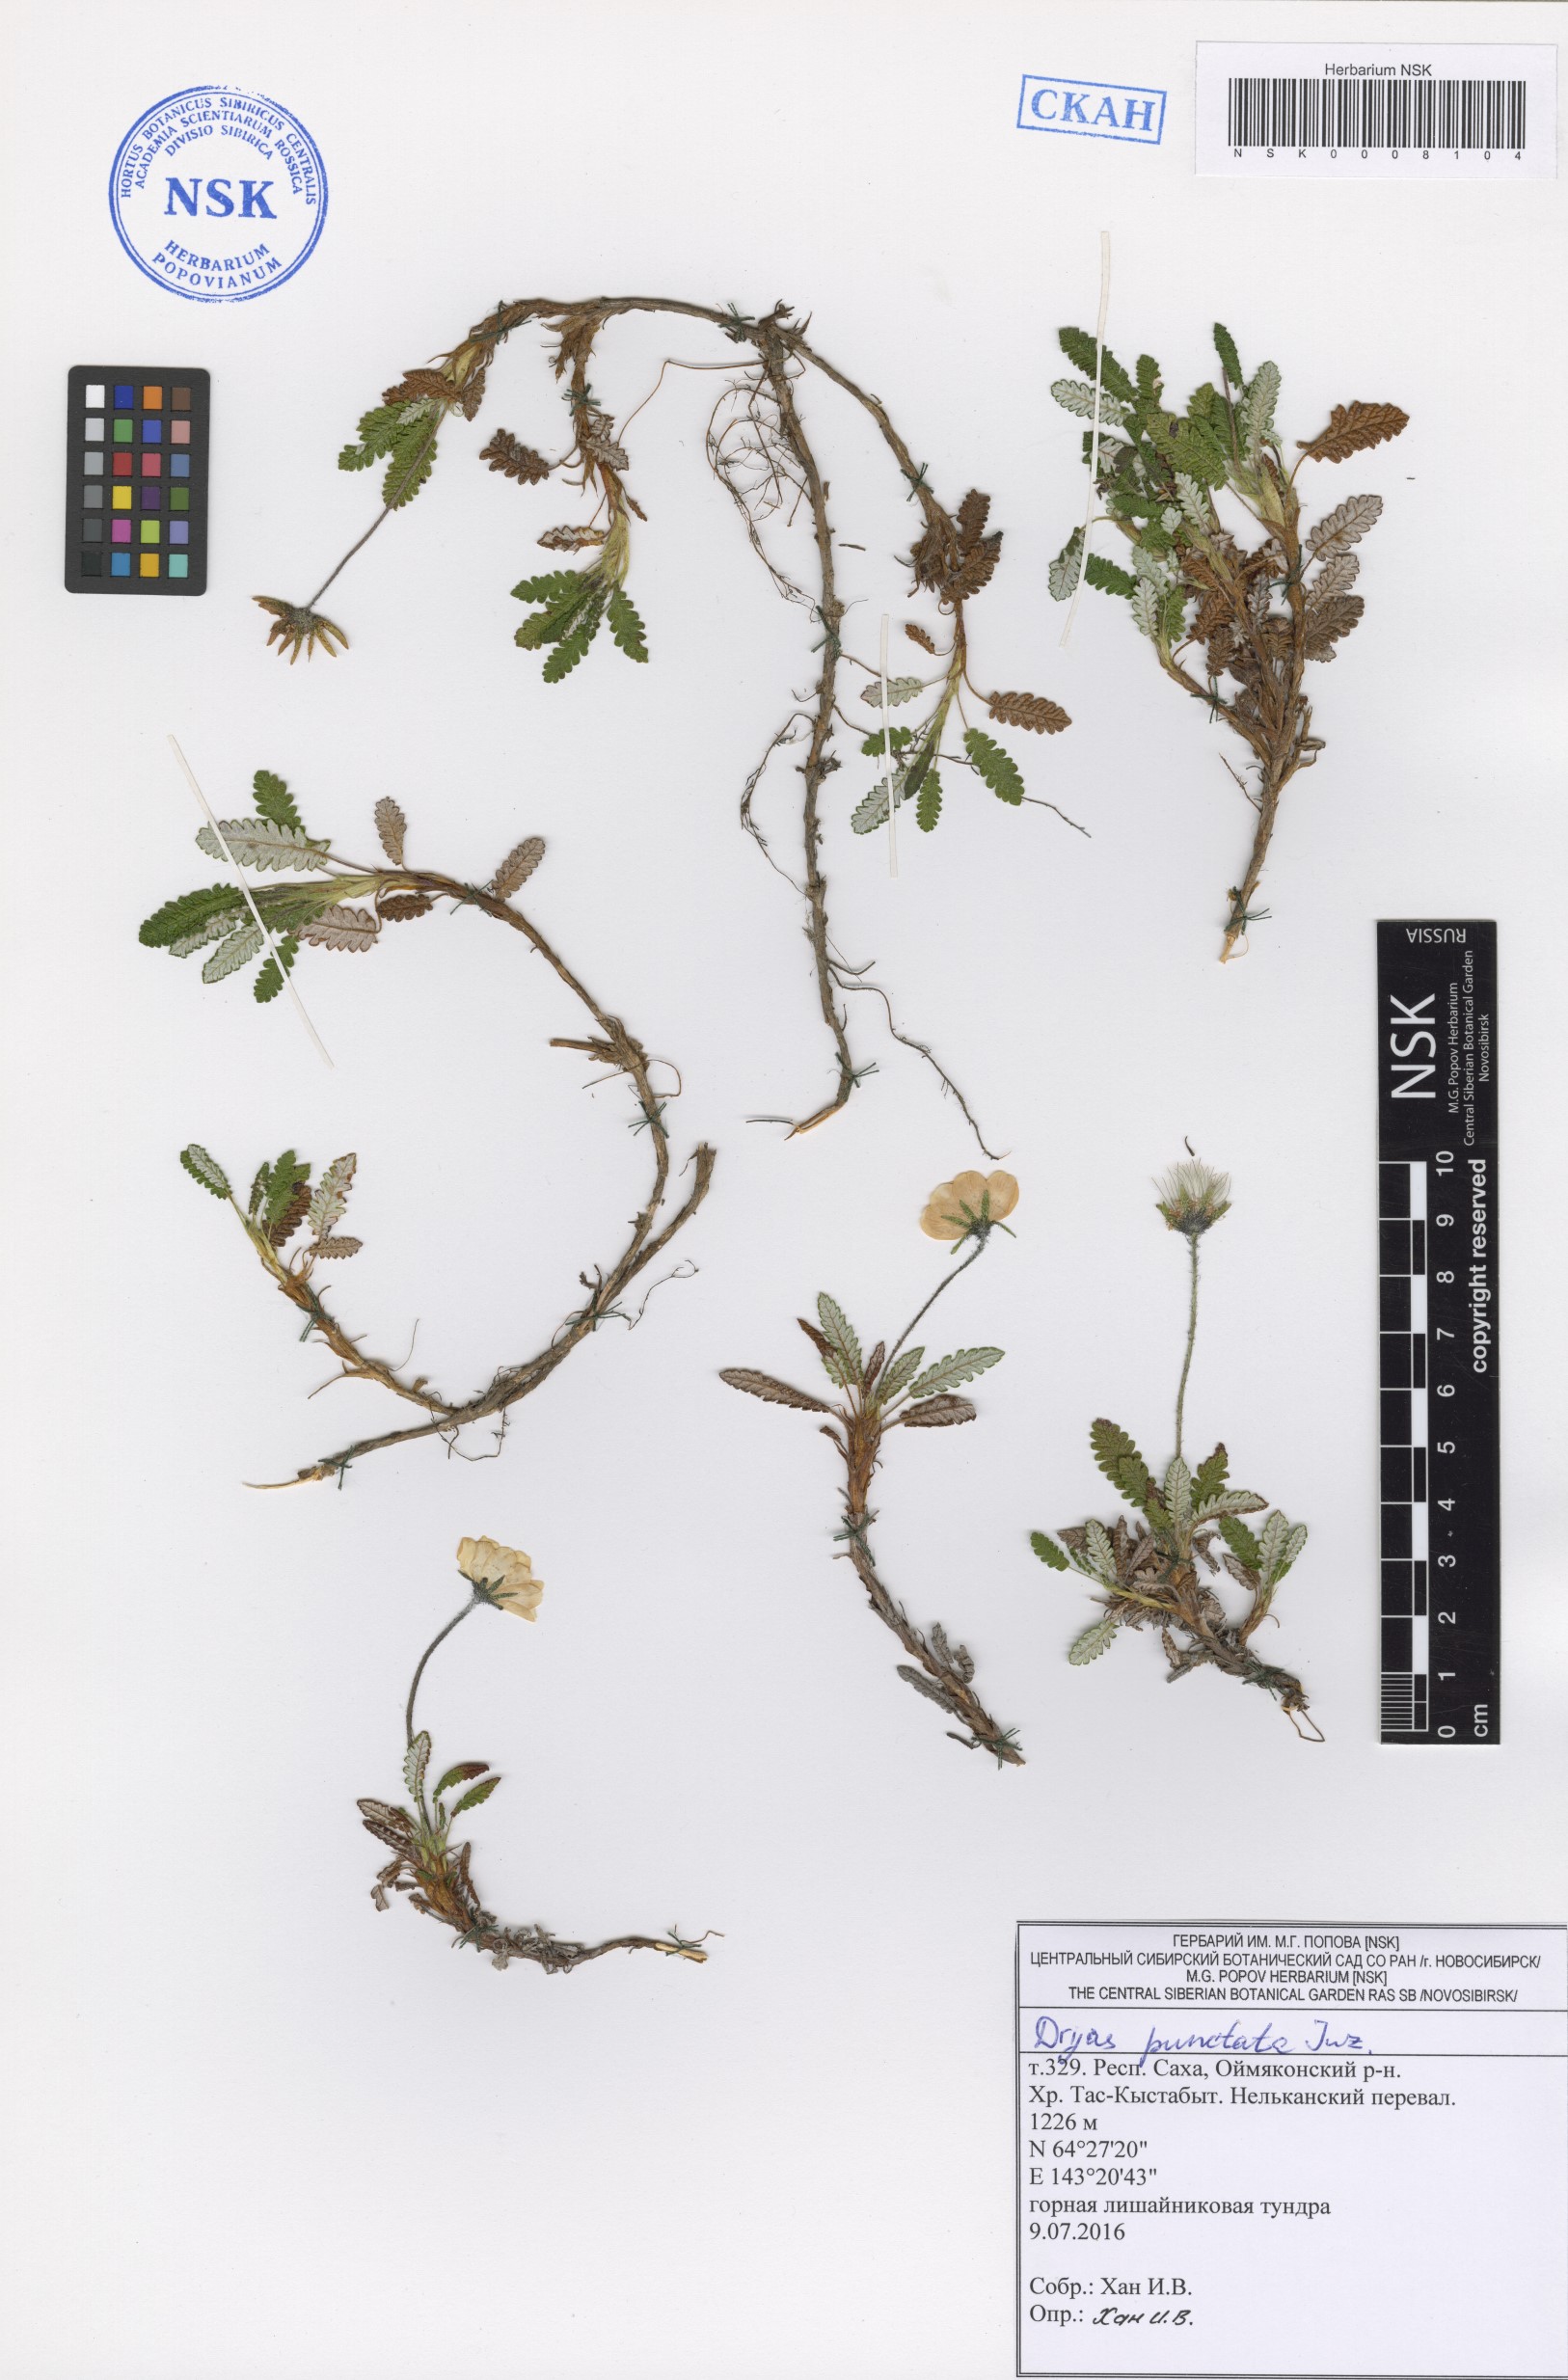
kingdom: Plantae
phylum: Tracheophyta
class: Magnoliopsida
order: Rosales
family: Rosaceae
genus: Dryas
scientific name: Dryas octopetala
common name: Eight-petal mountain-avens
